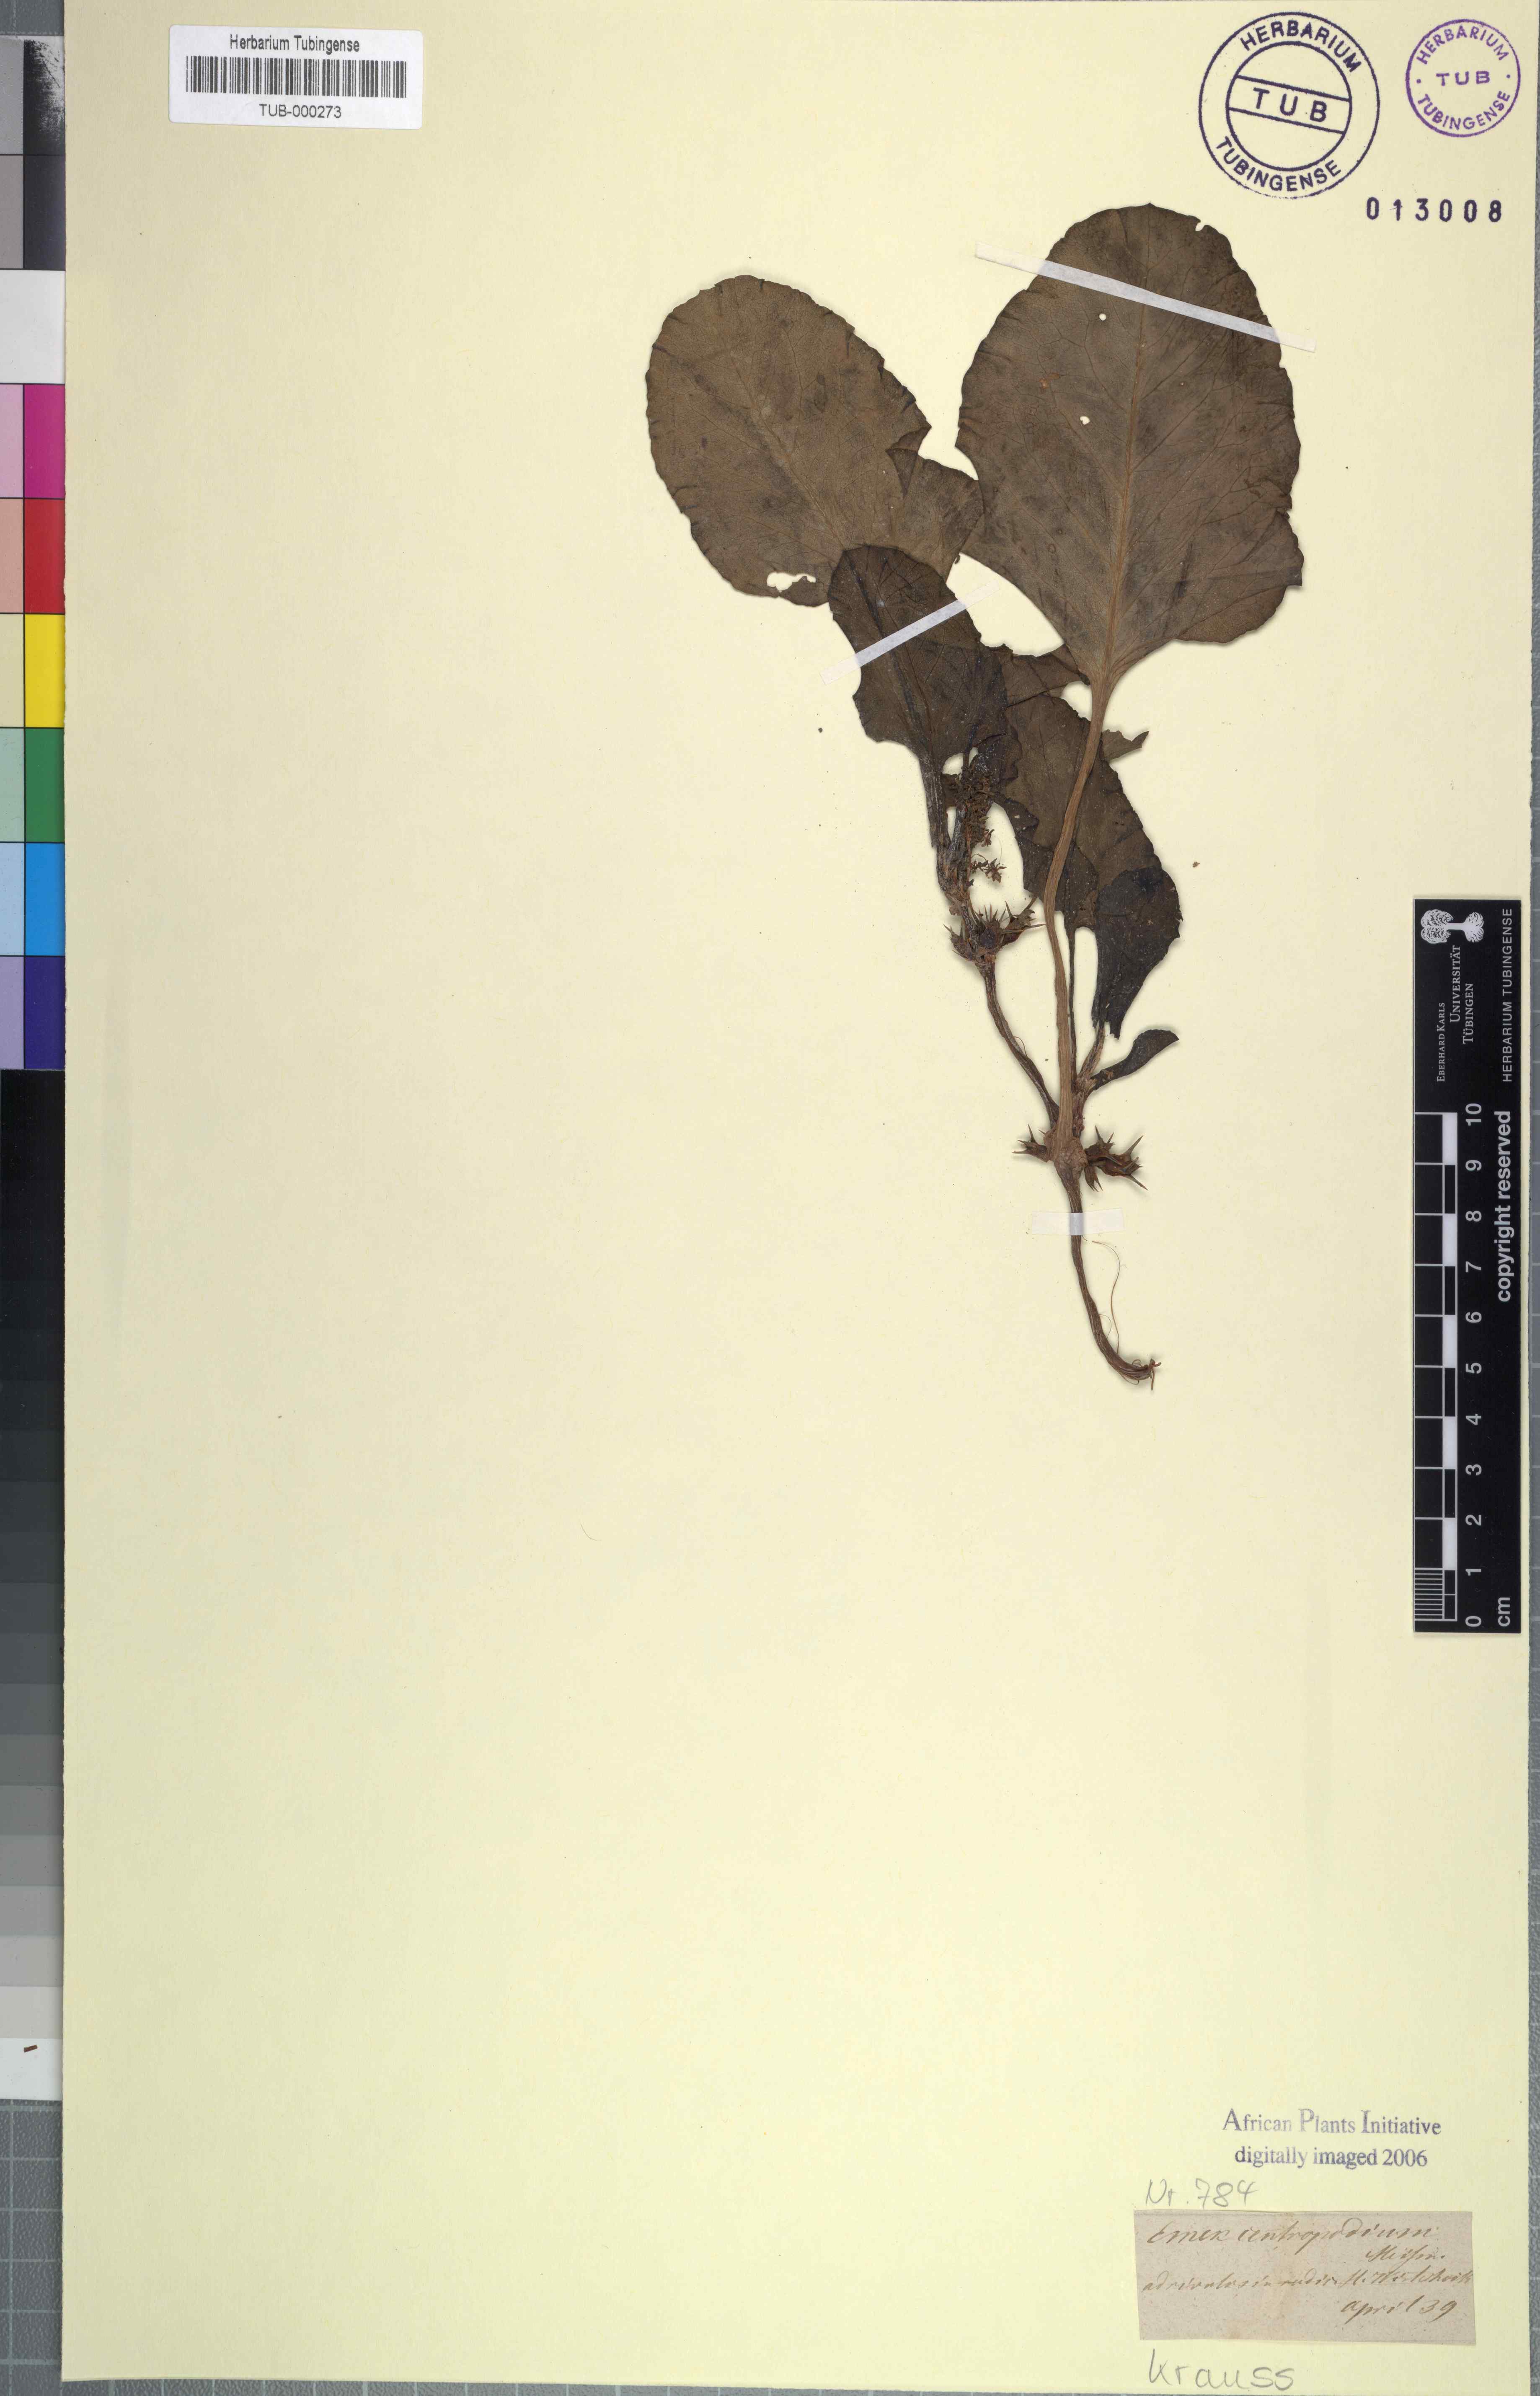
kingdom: Plantae
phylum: Tracheophyta
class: Magnoliopsida
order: Caryophyllales
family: Polygonaceae
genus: Rumex
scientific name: Rumex hypogaeus
